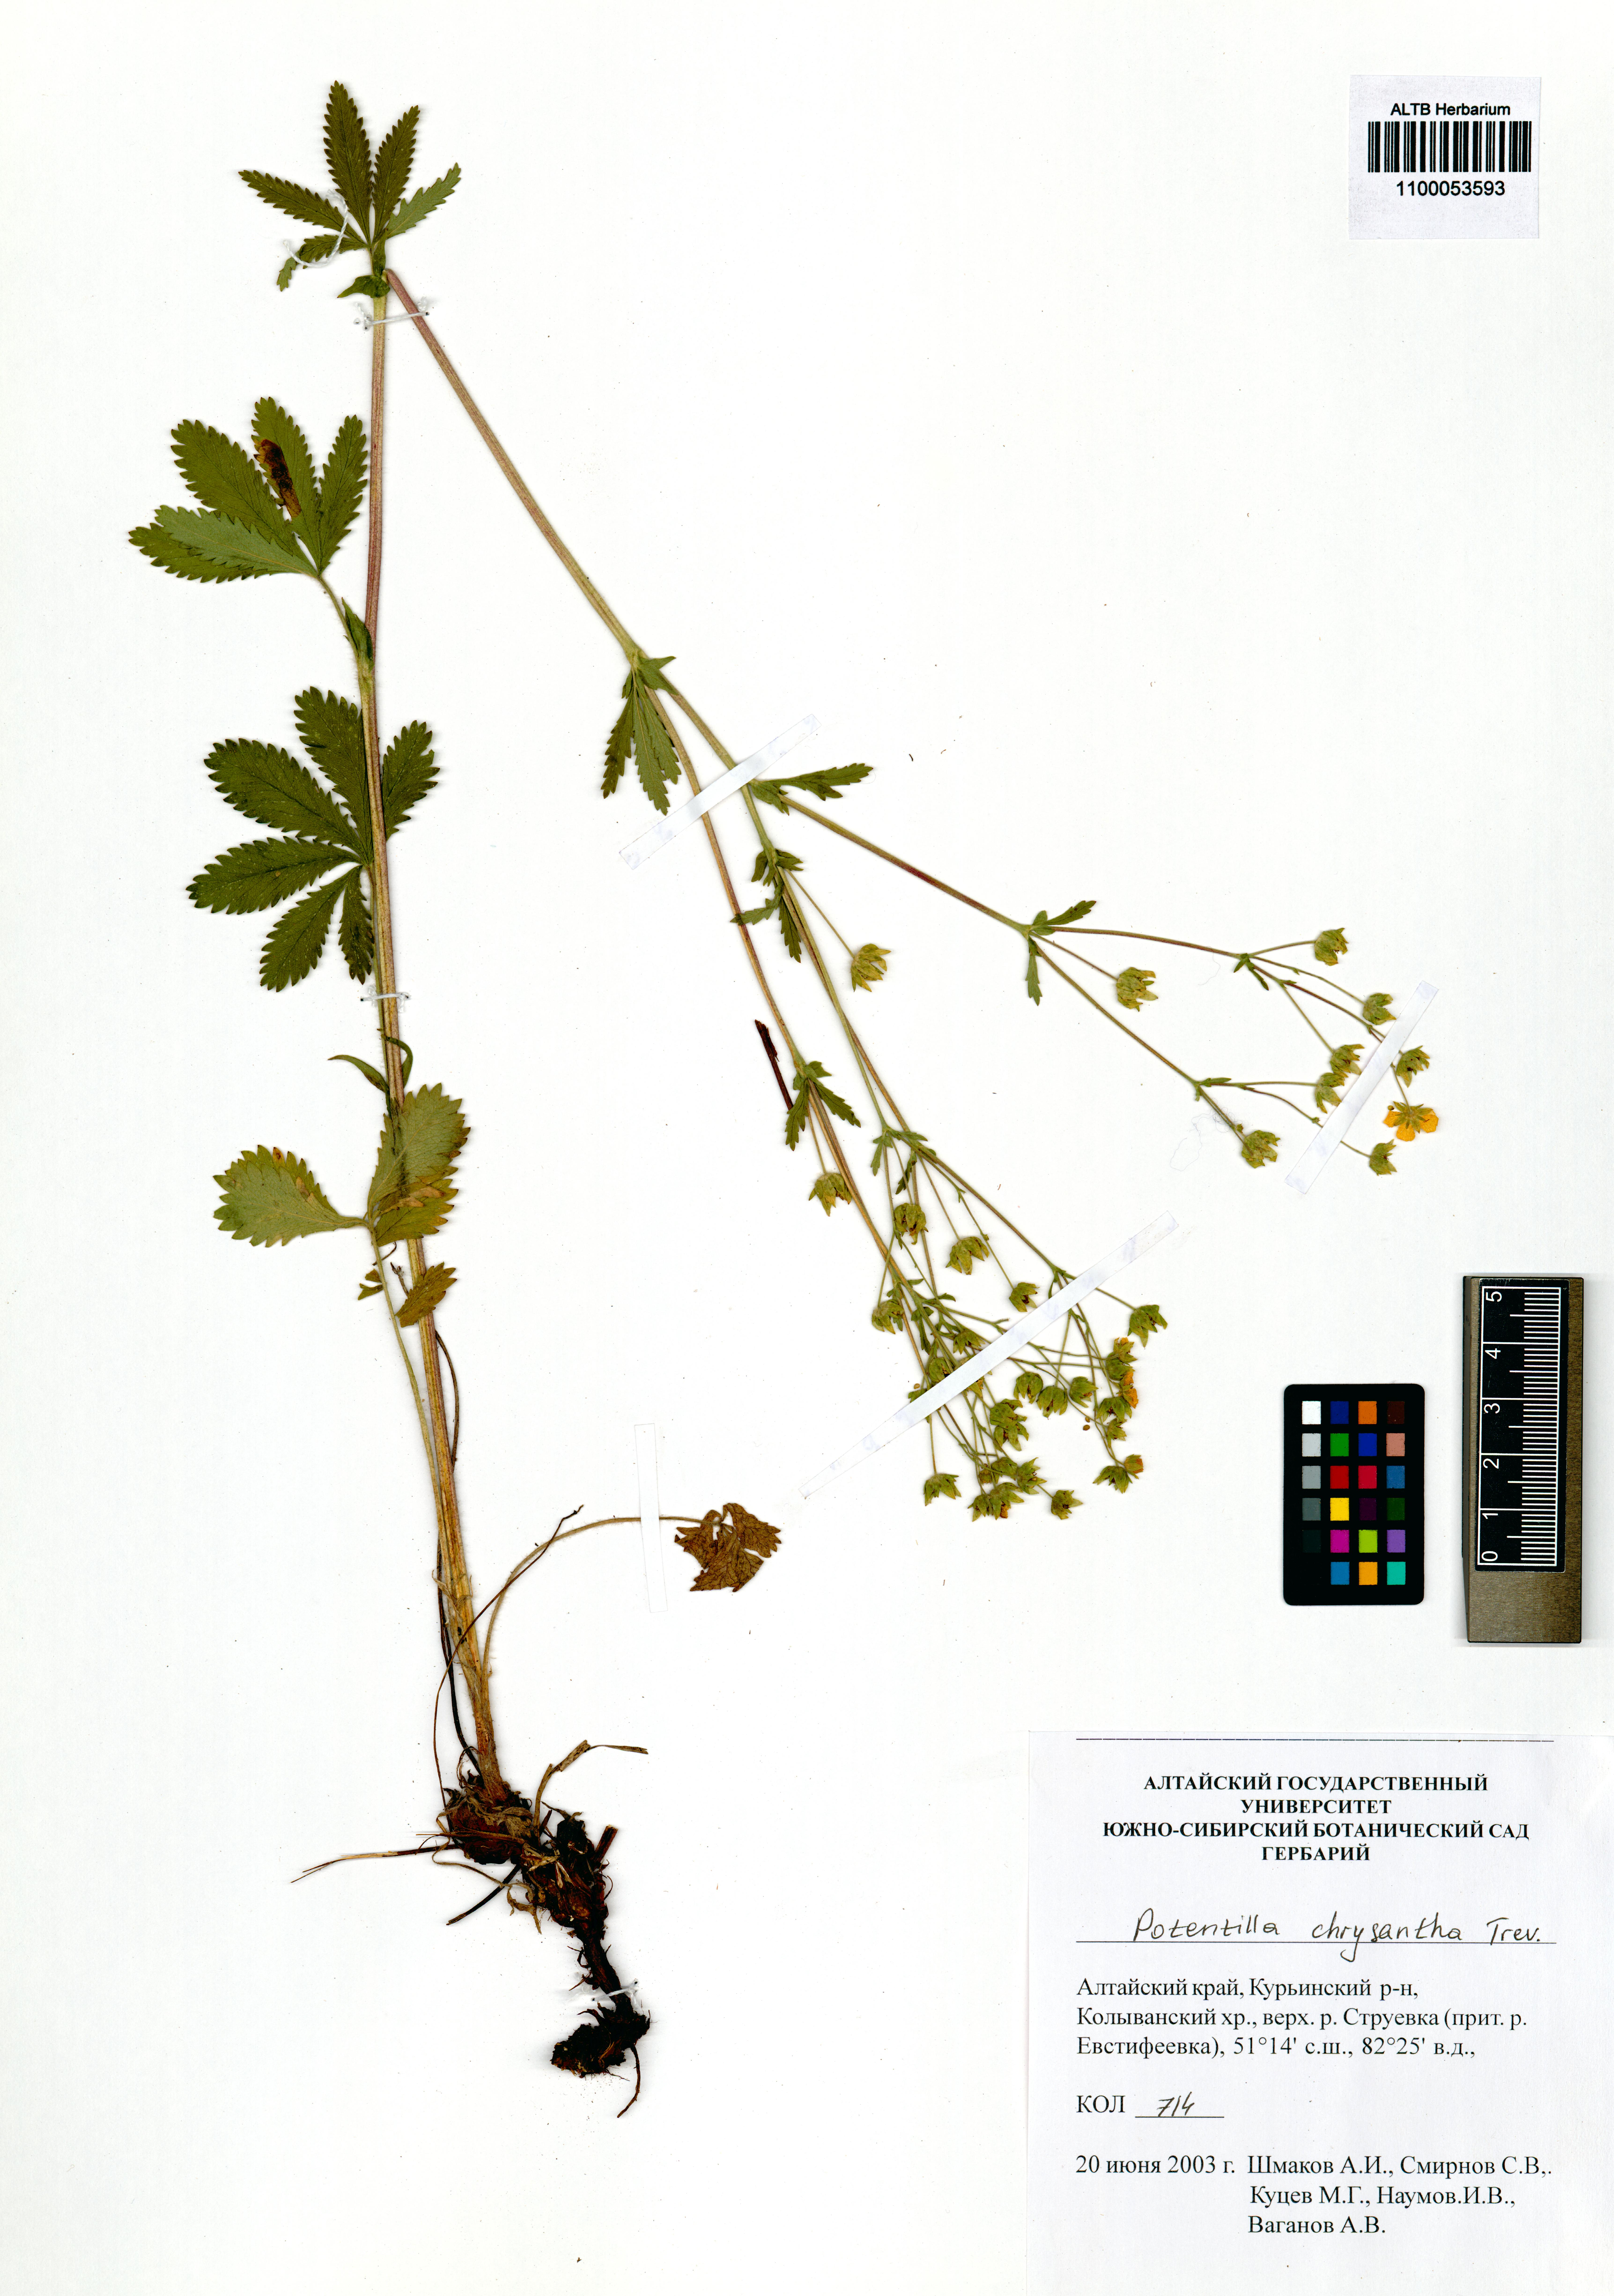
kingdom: Plantae
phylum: Tracheophyta
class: Magnoliopsida
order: Rosales
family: Rosaceae
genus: Potentilla
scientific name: Potentilla chrysantha
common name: Thuringian cinquefoil
